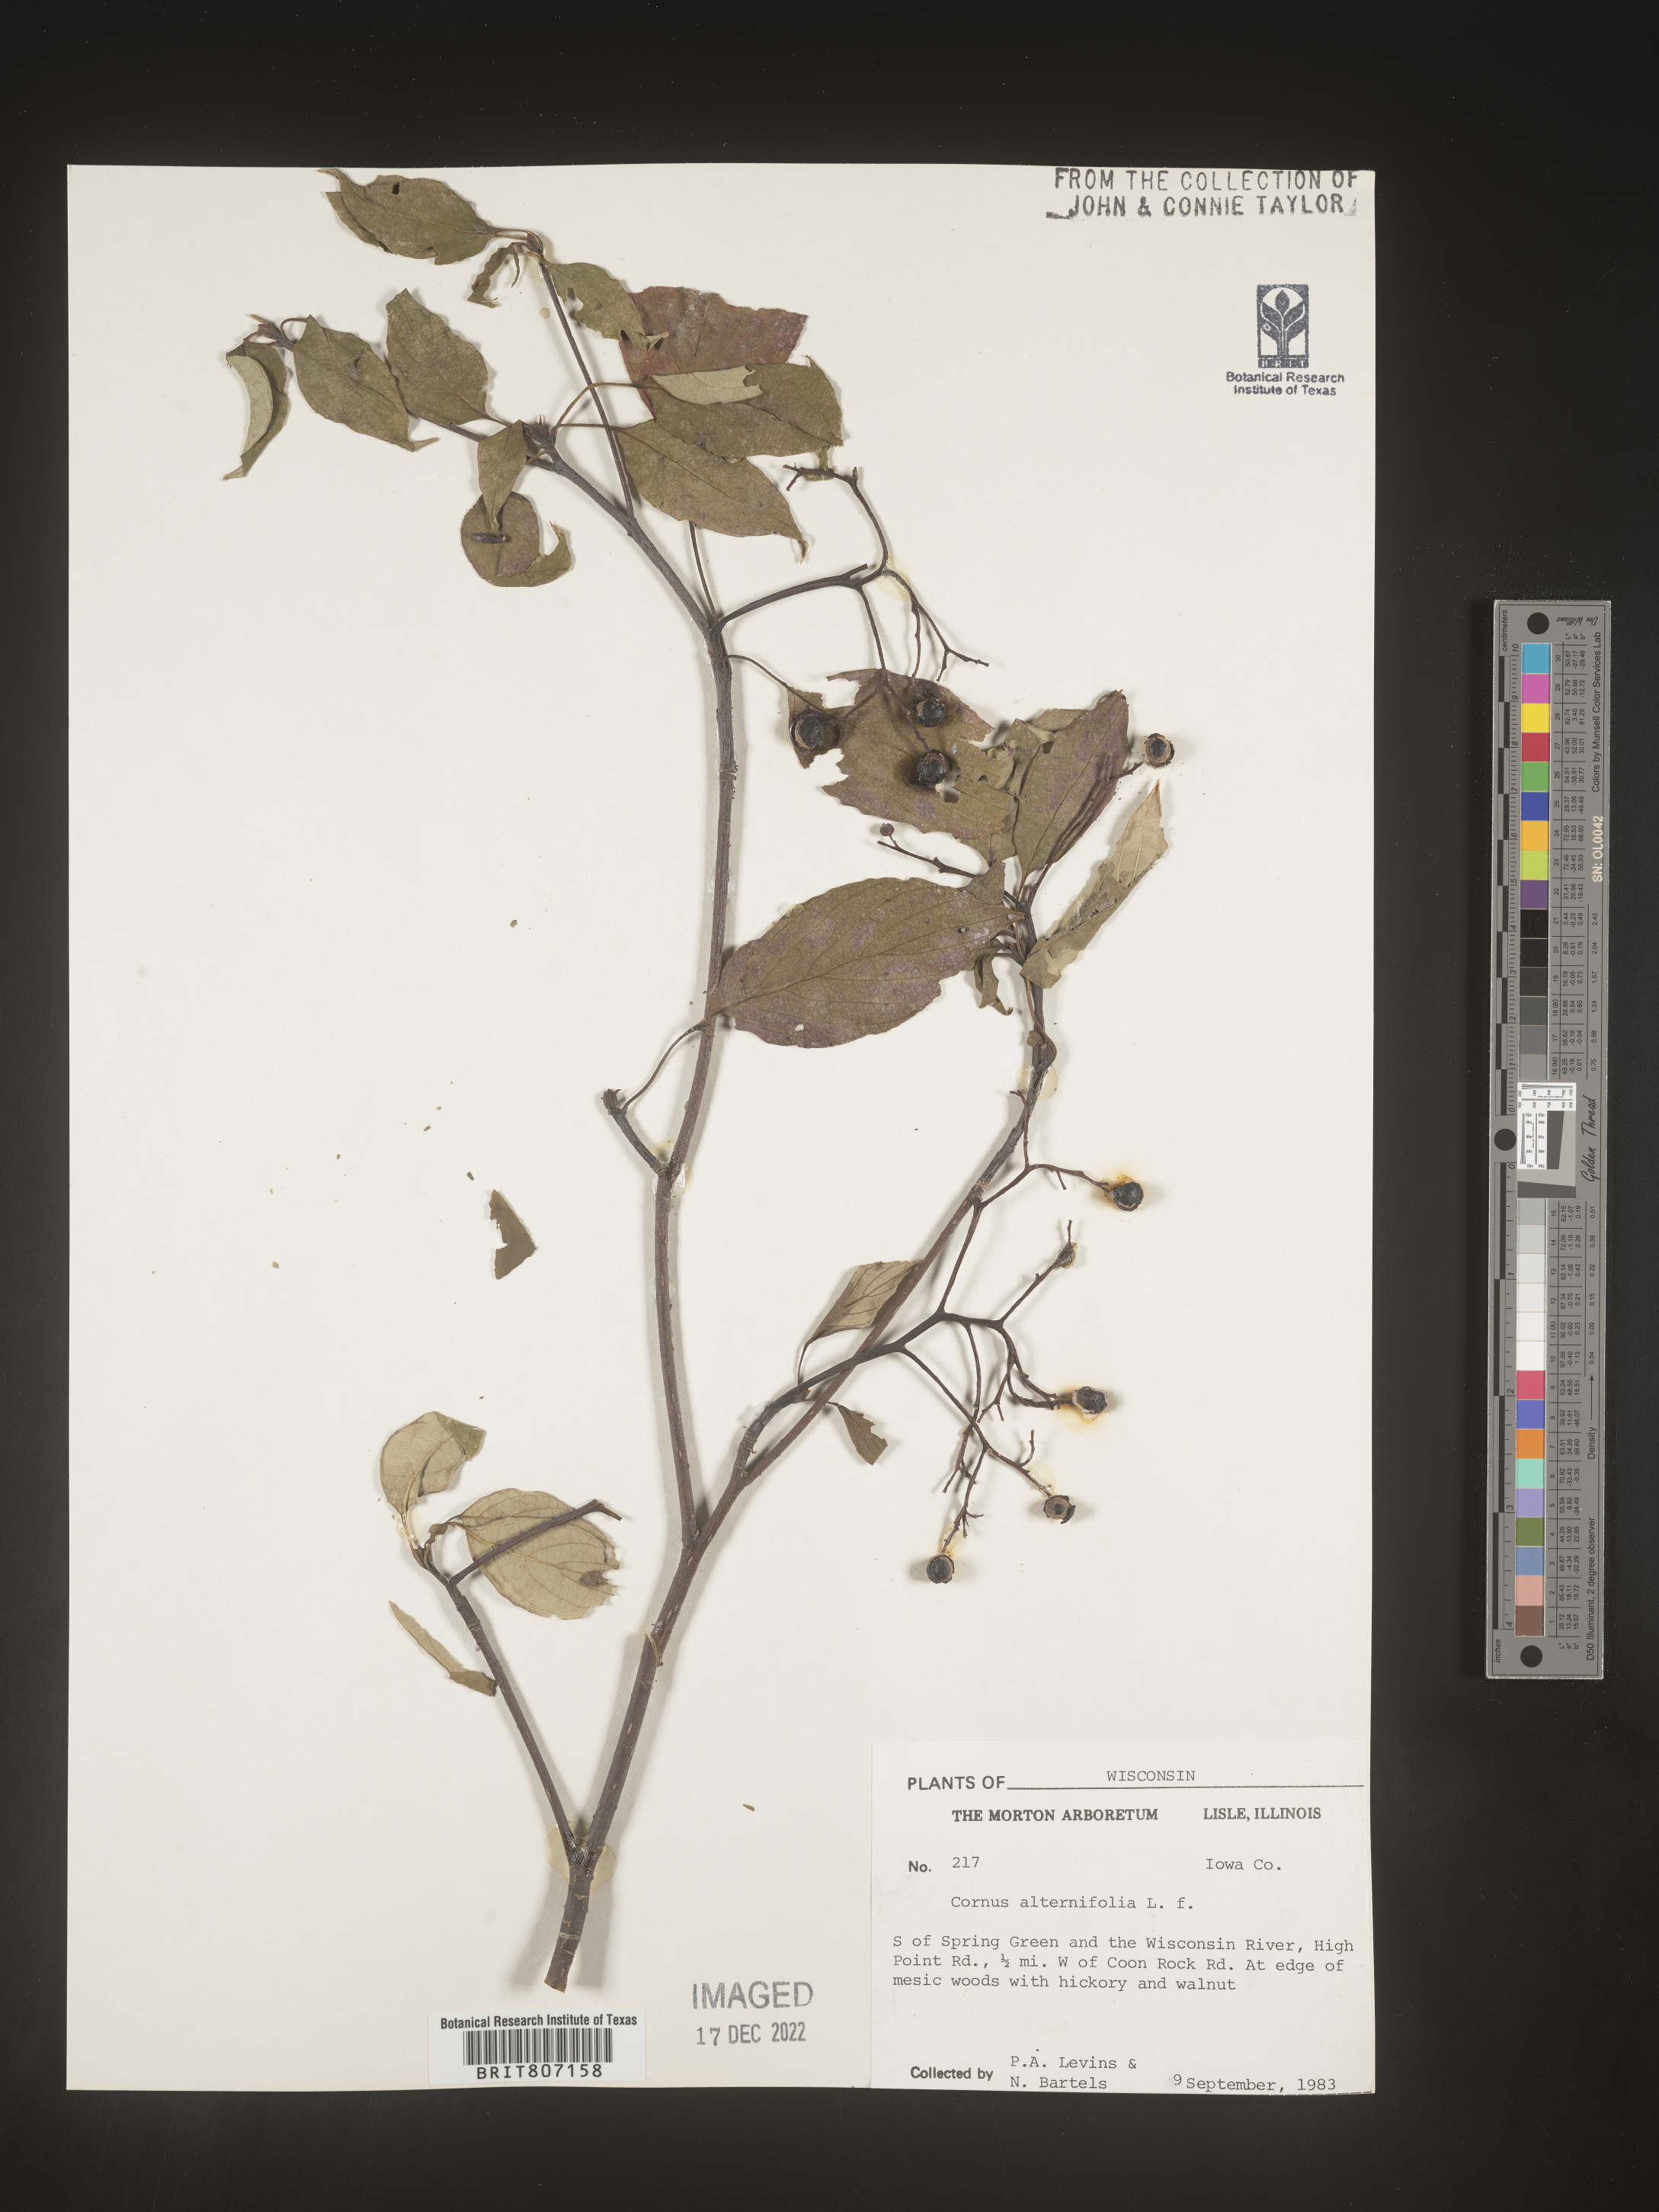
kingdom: Plantae
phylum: Tracheophyta
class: Magnoliopsida
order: Cornales
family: Cornaceae
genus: Cornus
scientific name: Cornus alternifolia
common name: Pagoda dogwood
